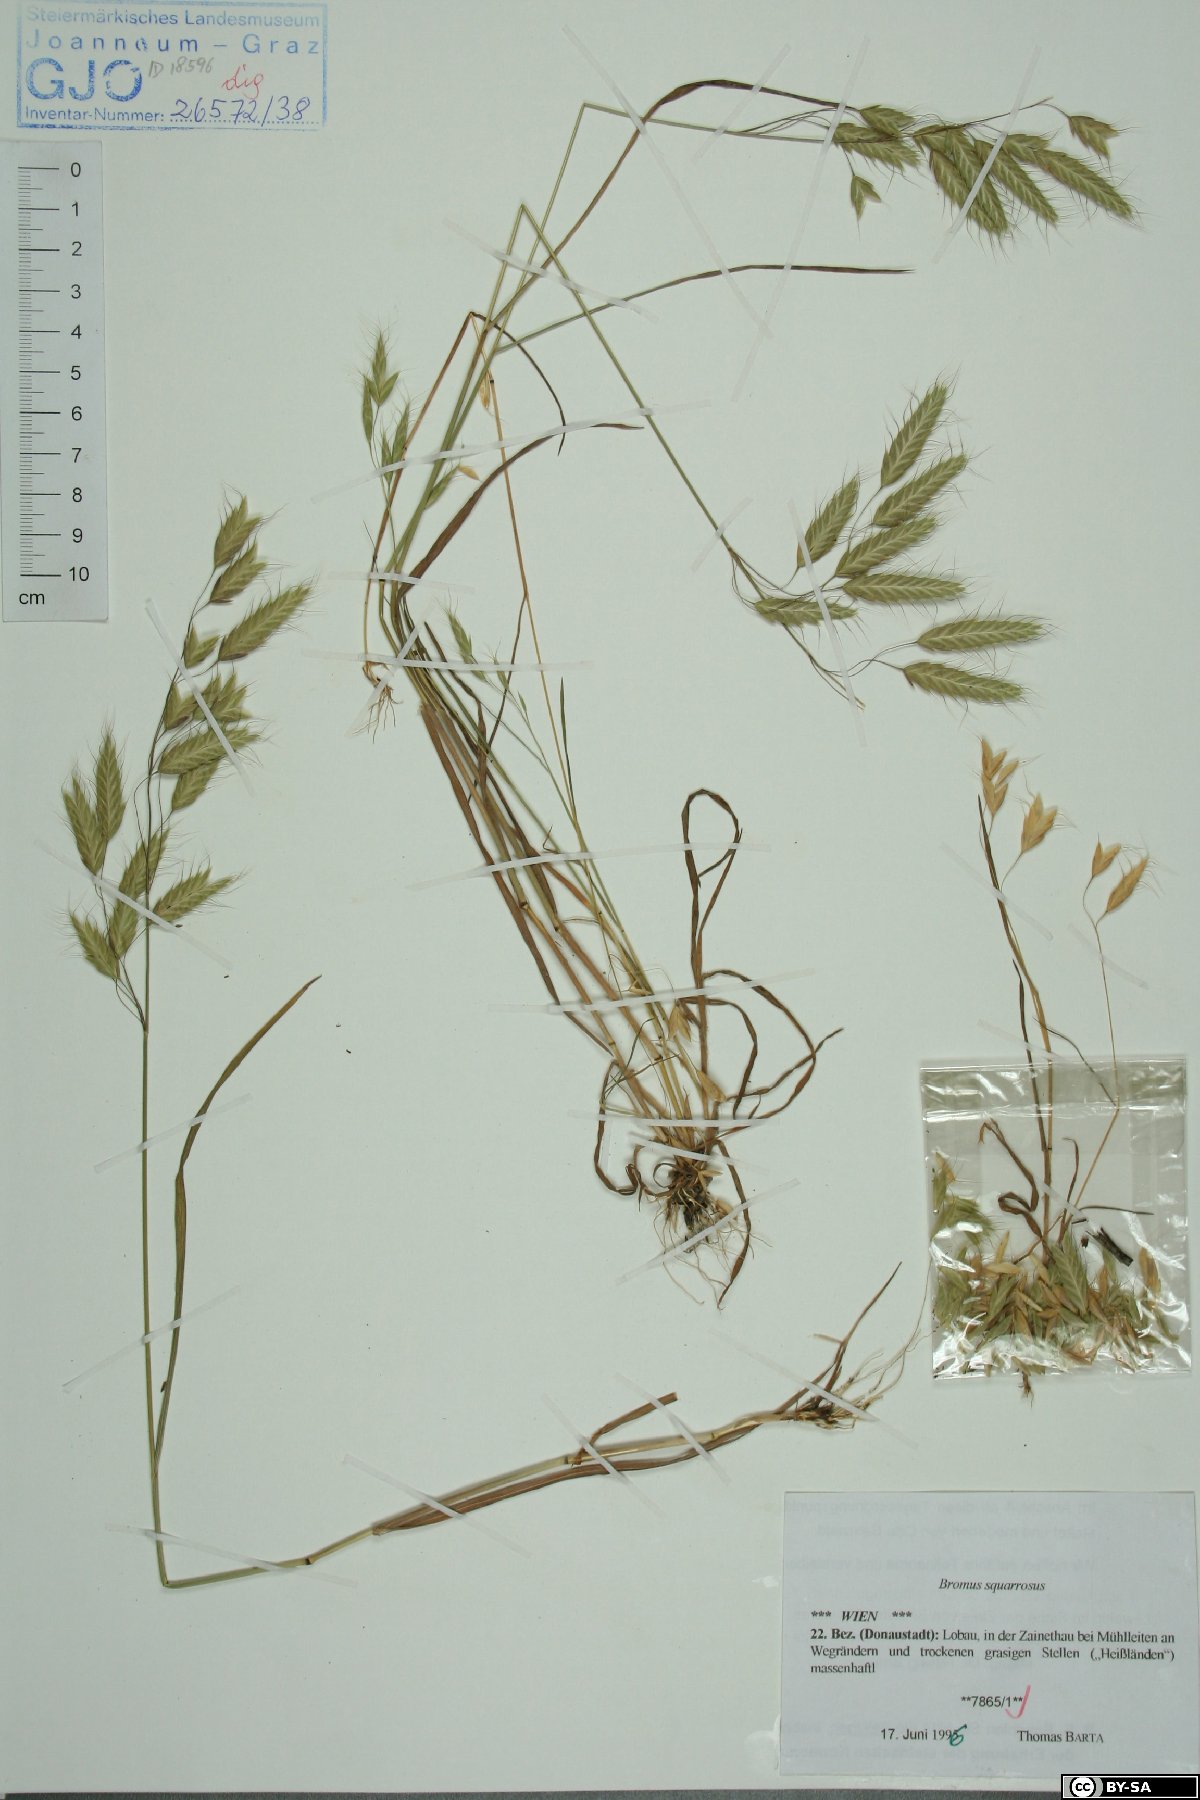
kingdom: Plantae
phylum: Tracheophyta
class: Liliopsida
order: Poales
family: Poaceae
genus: Bromus
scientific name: Bromus squarrosus
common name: Corn brome
